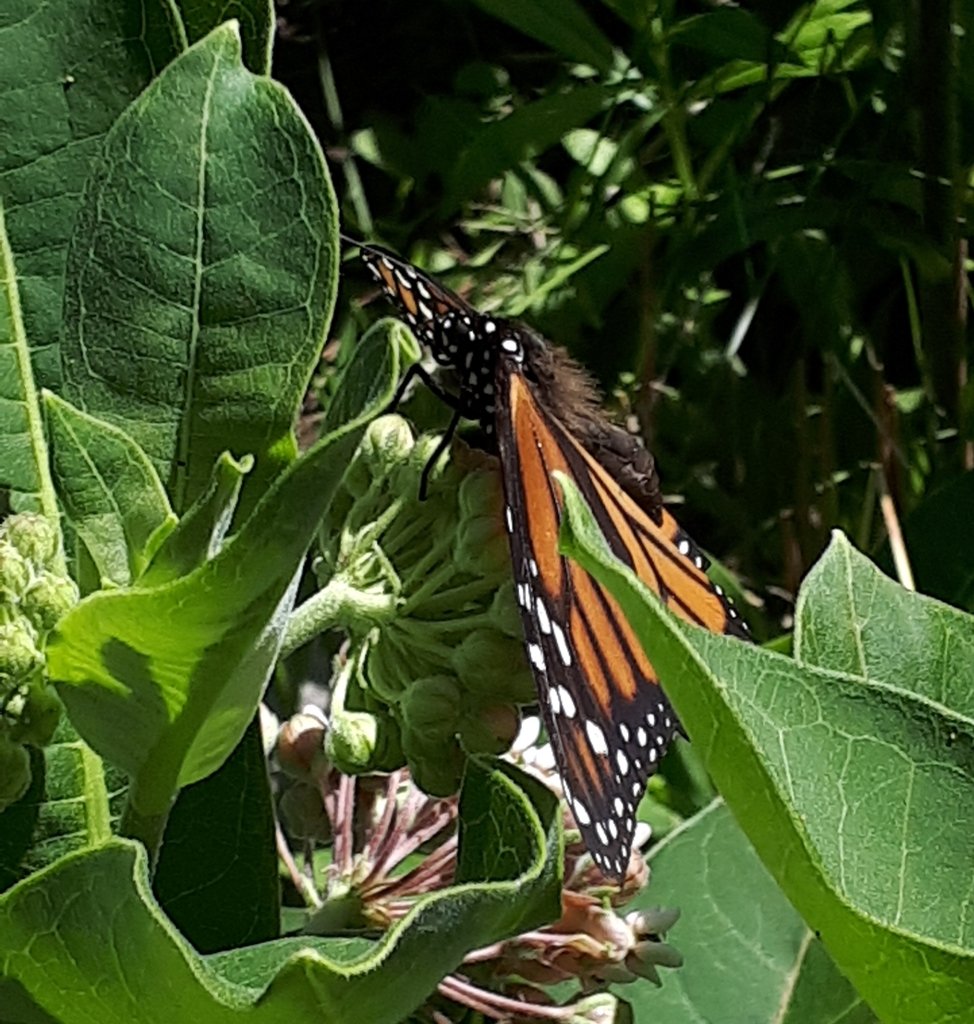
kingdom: Animalia
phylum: Arthropoda
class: Insecta
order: Lepidoptera
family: Nymphalidae
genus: Danaus
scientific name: Danaus plexippus
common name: Monarch
